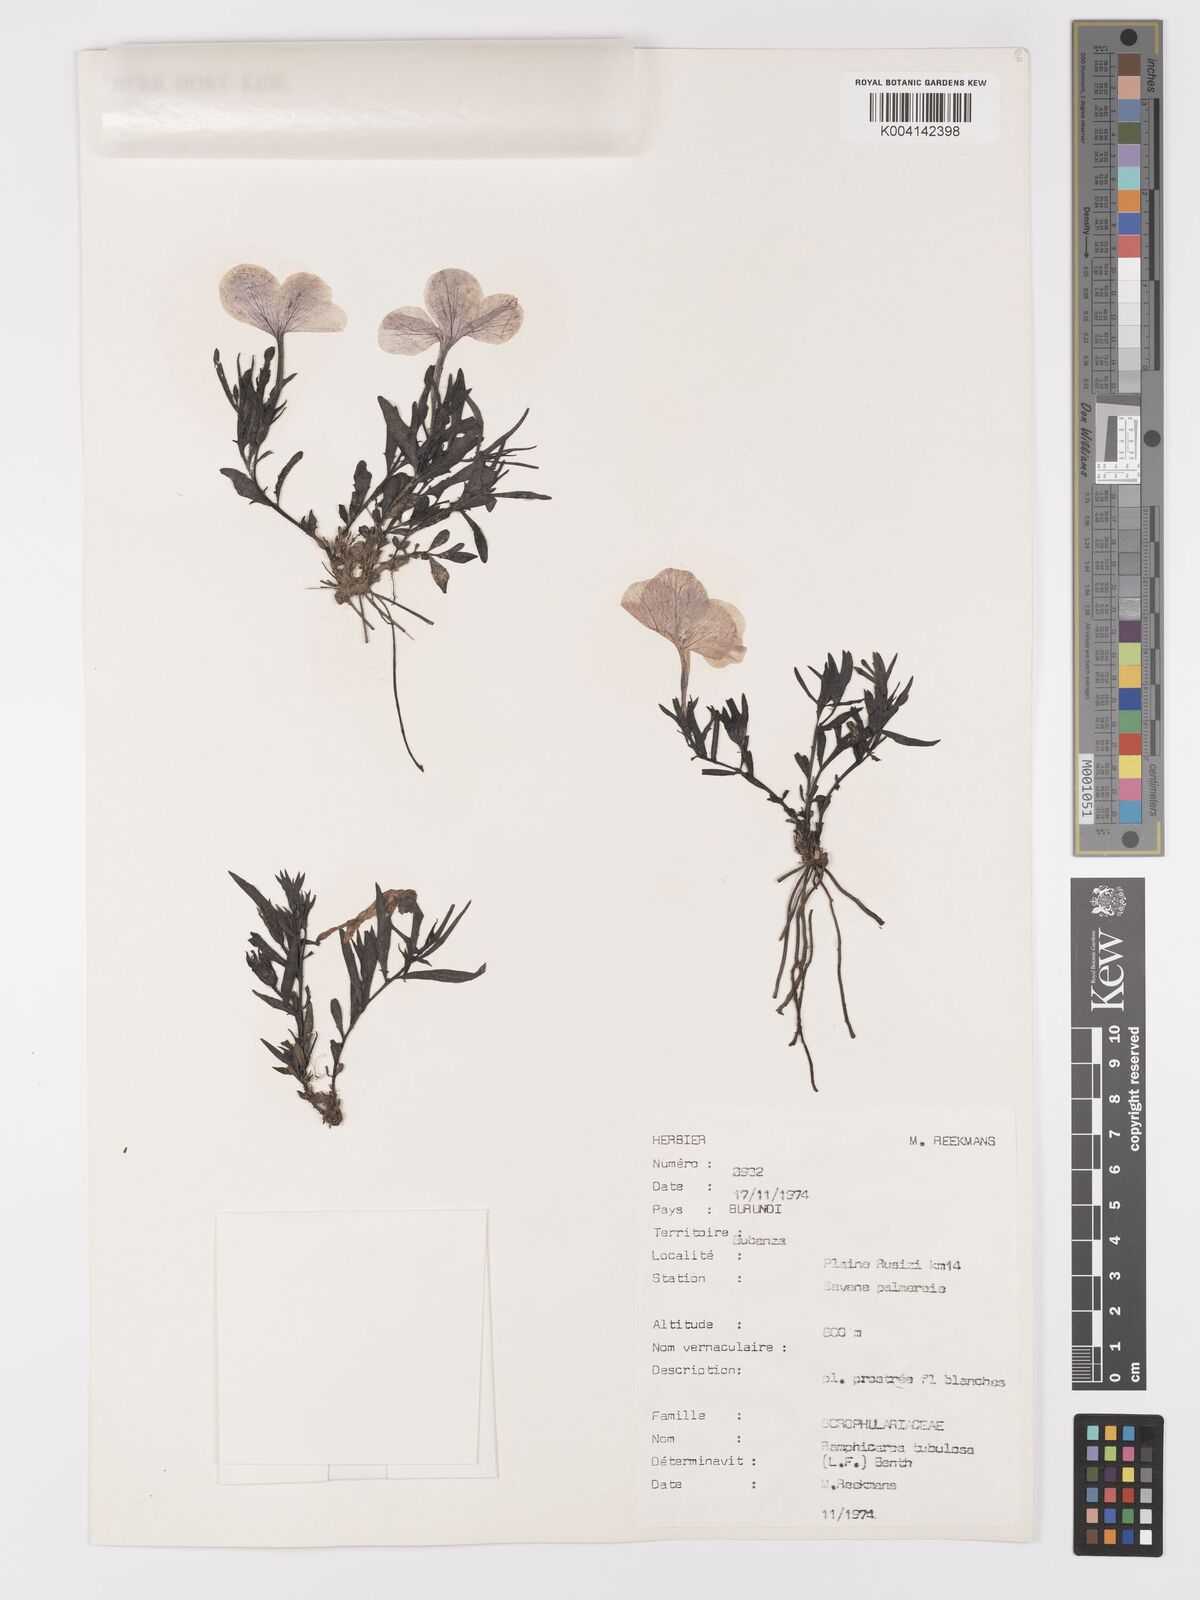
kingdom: Plantae
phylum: Tracheophyta
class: Magnoliopsida
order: Lamiales
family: Orobanchaceae
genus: Cycnium
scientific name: Cycnium tubulosum
